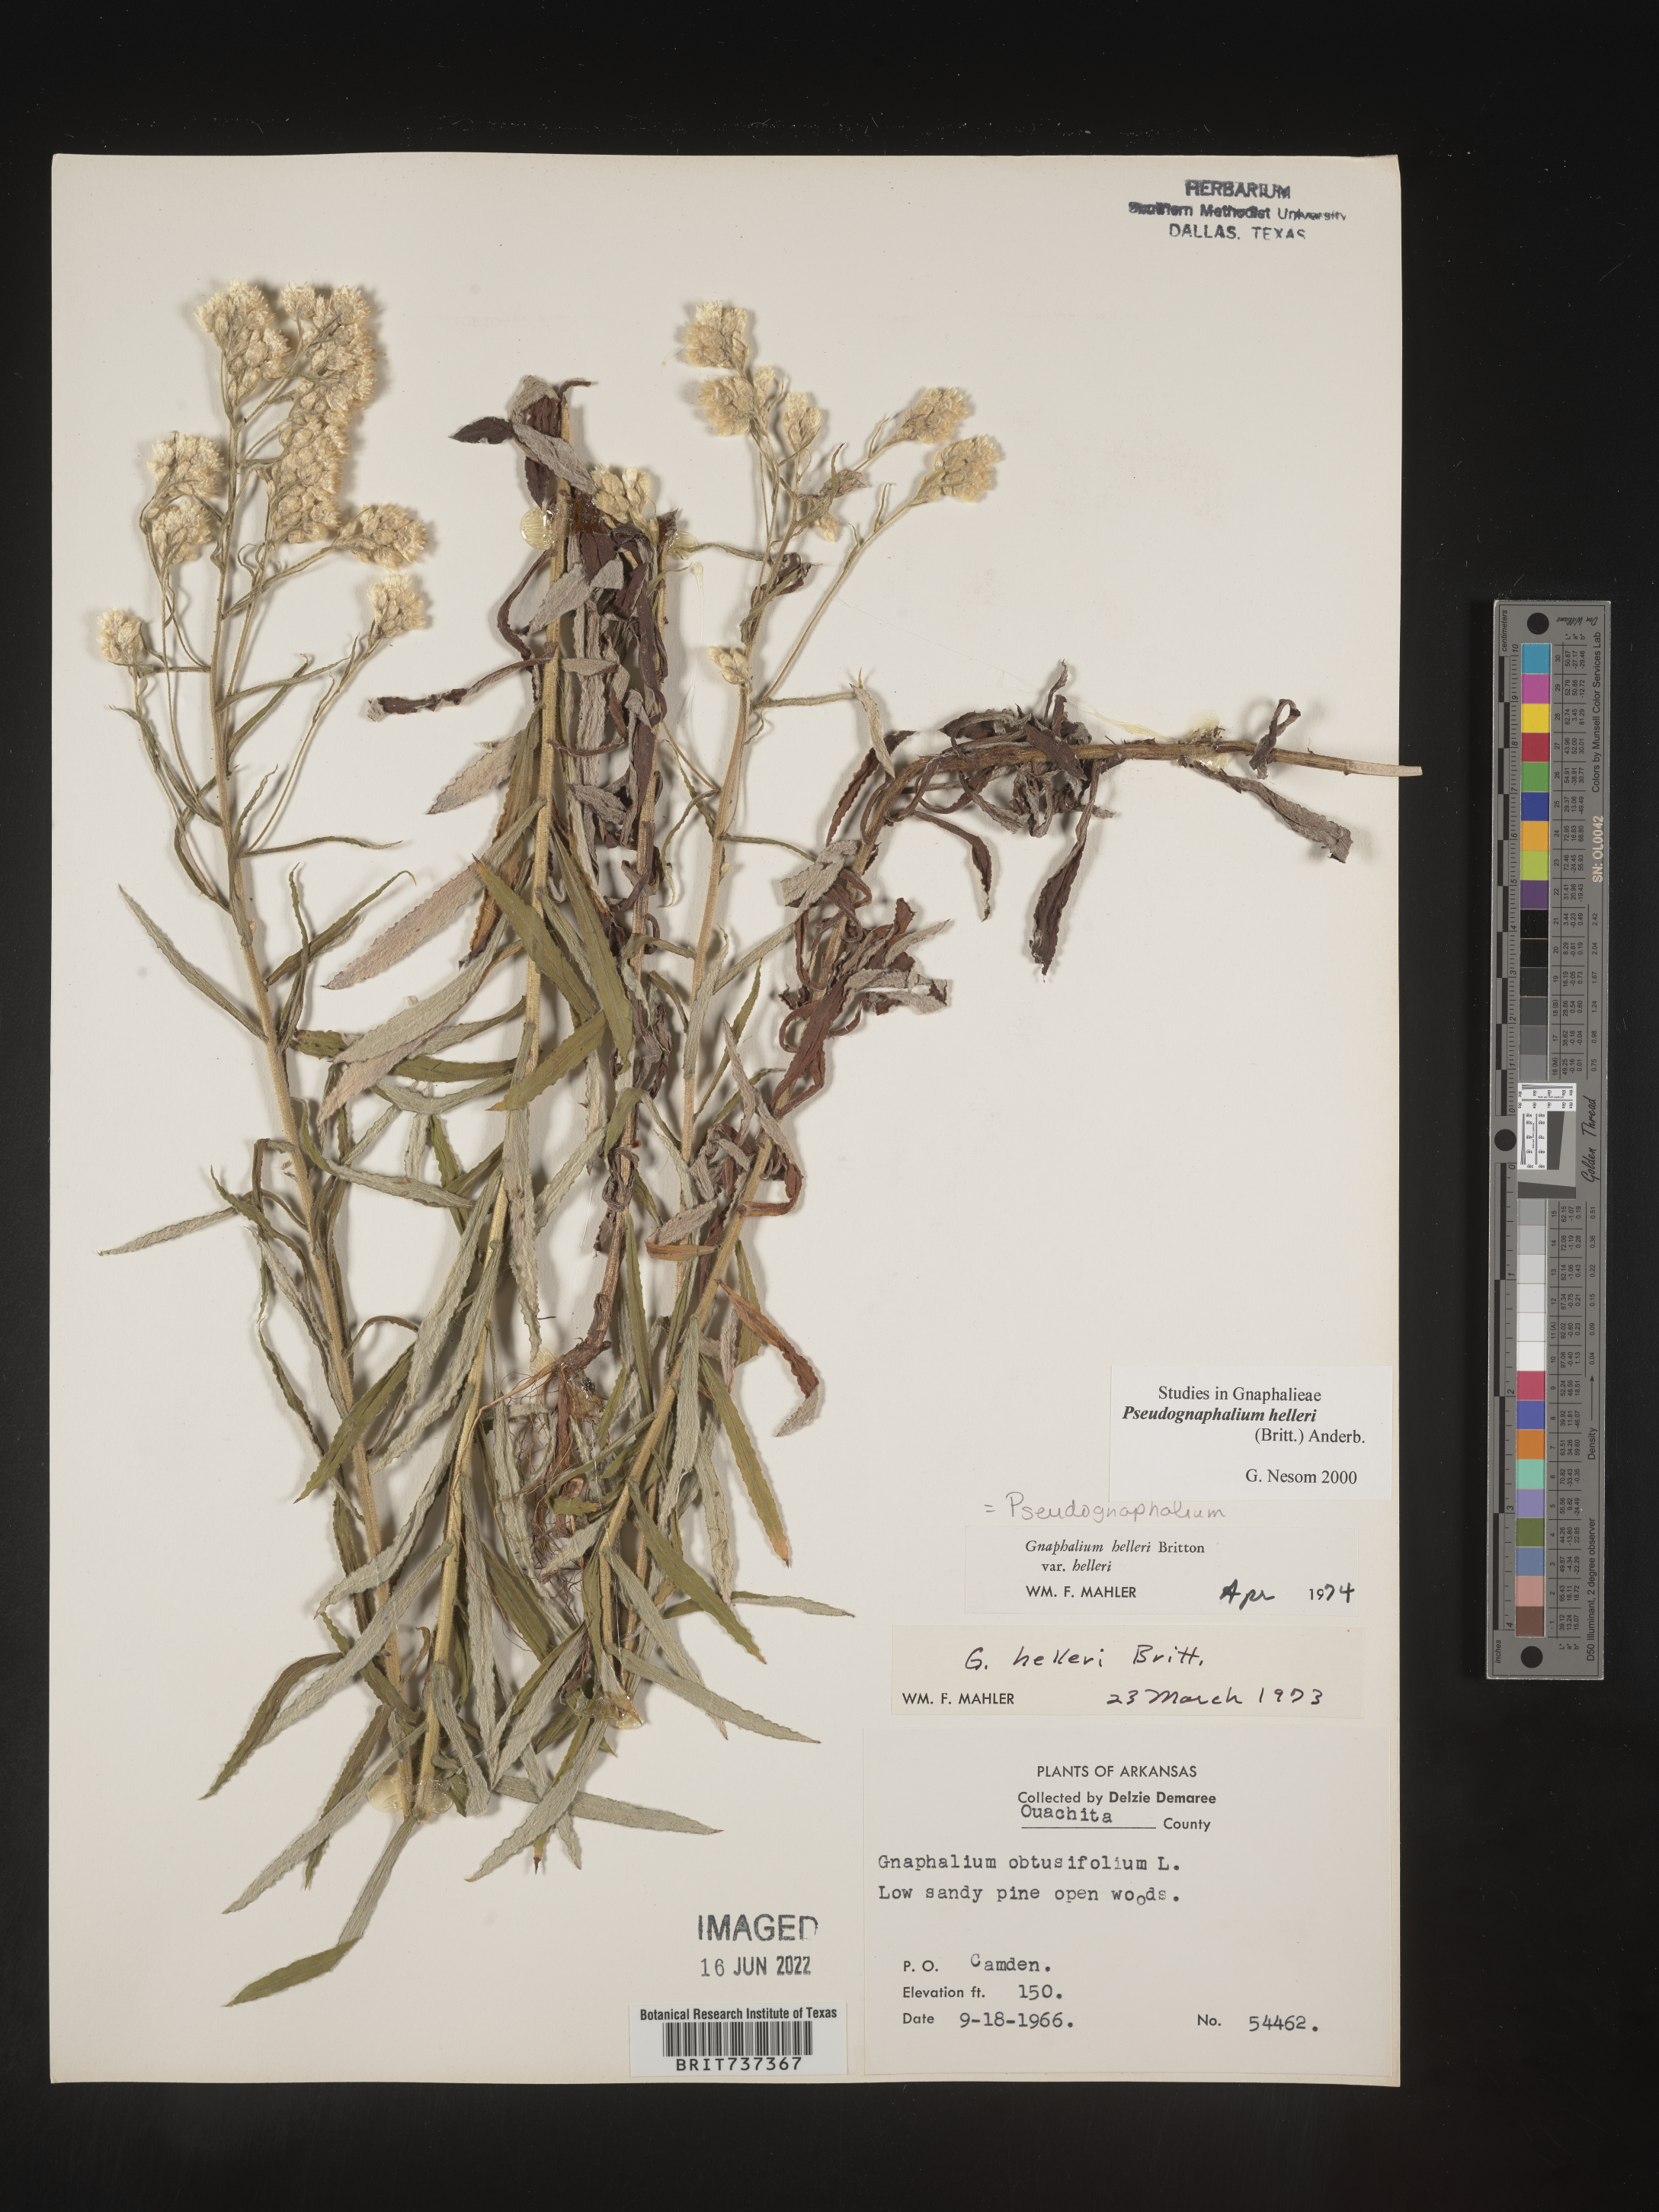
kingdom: Plantae
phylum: Tracheophyta
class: Magnoliopsida
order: Asterales
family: Asteraceae
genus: Pseudognaphalium
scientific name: Pseudognaphalium helleri
